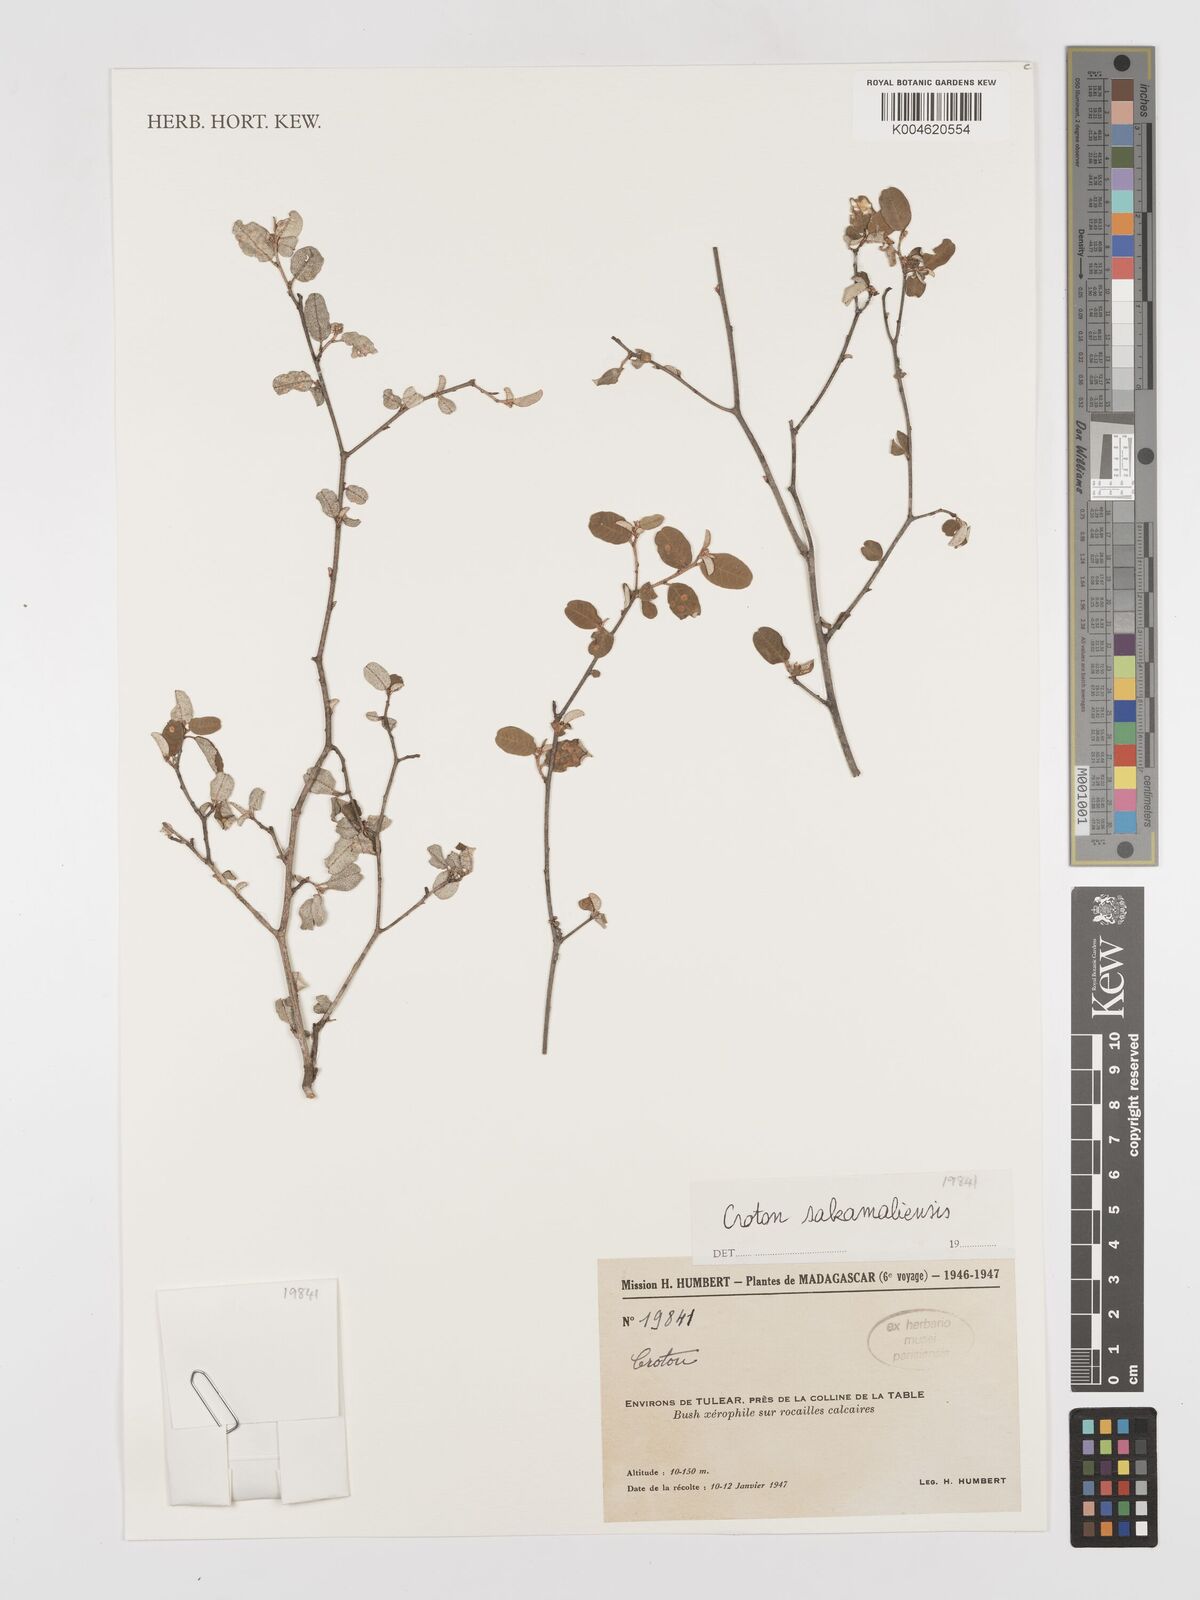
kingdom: Plantae
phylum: Tracheophyta
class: Magnoliopsida
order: Malpighiales
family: Euphorbiaceae
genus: Croton
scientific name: Croton sakamaliensis
